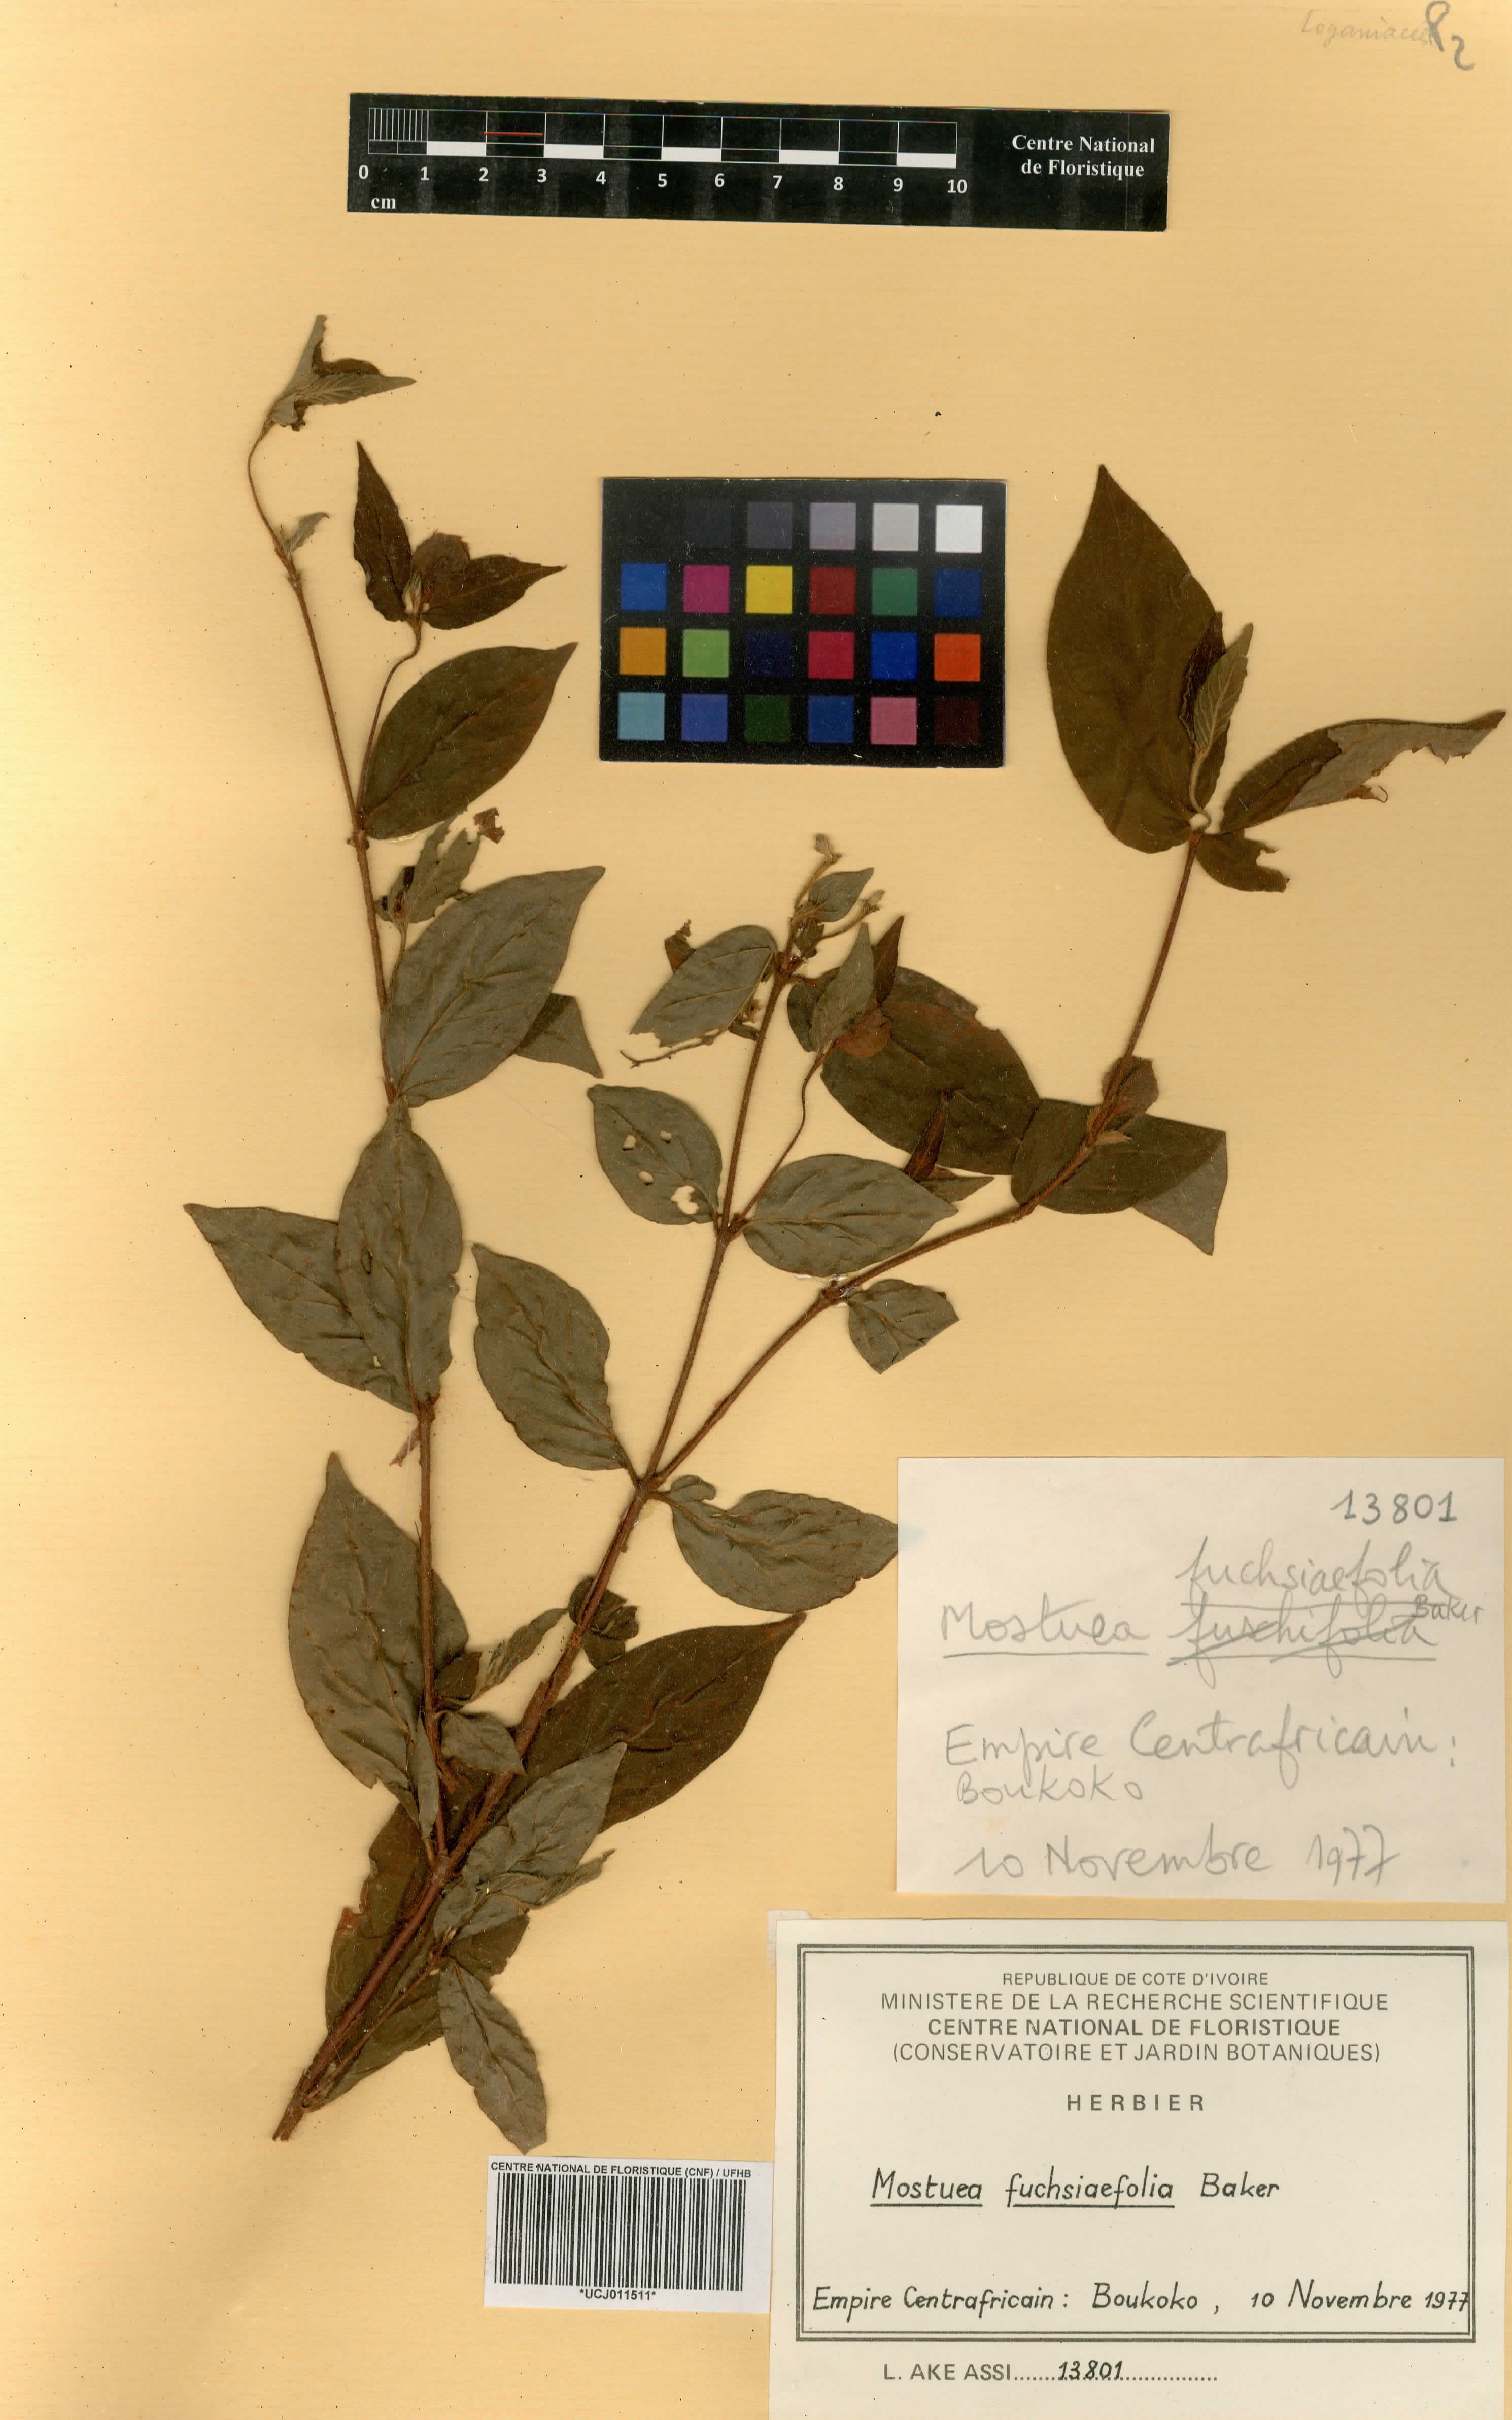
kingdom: Plantae
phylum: Tracheophyta
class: Magnoliopsida
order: Gentianales
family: Loganiaceae
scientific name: Loganiaceae
